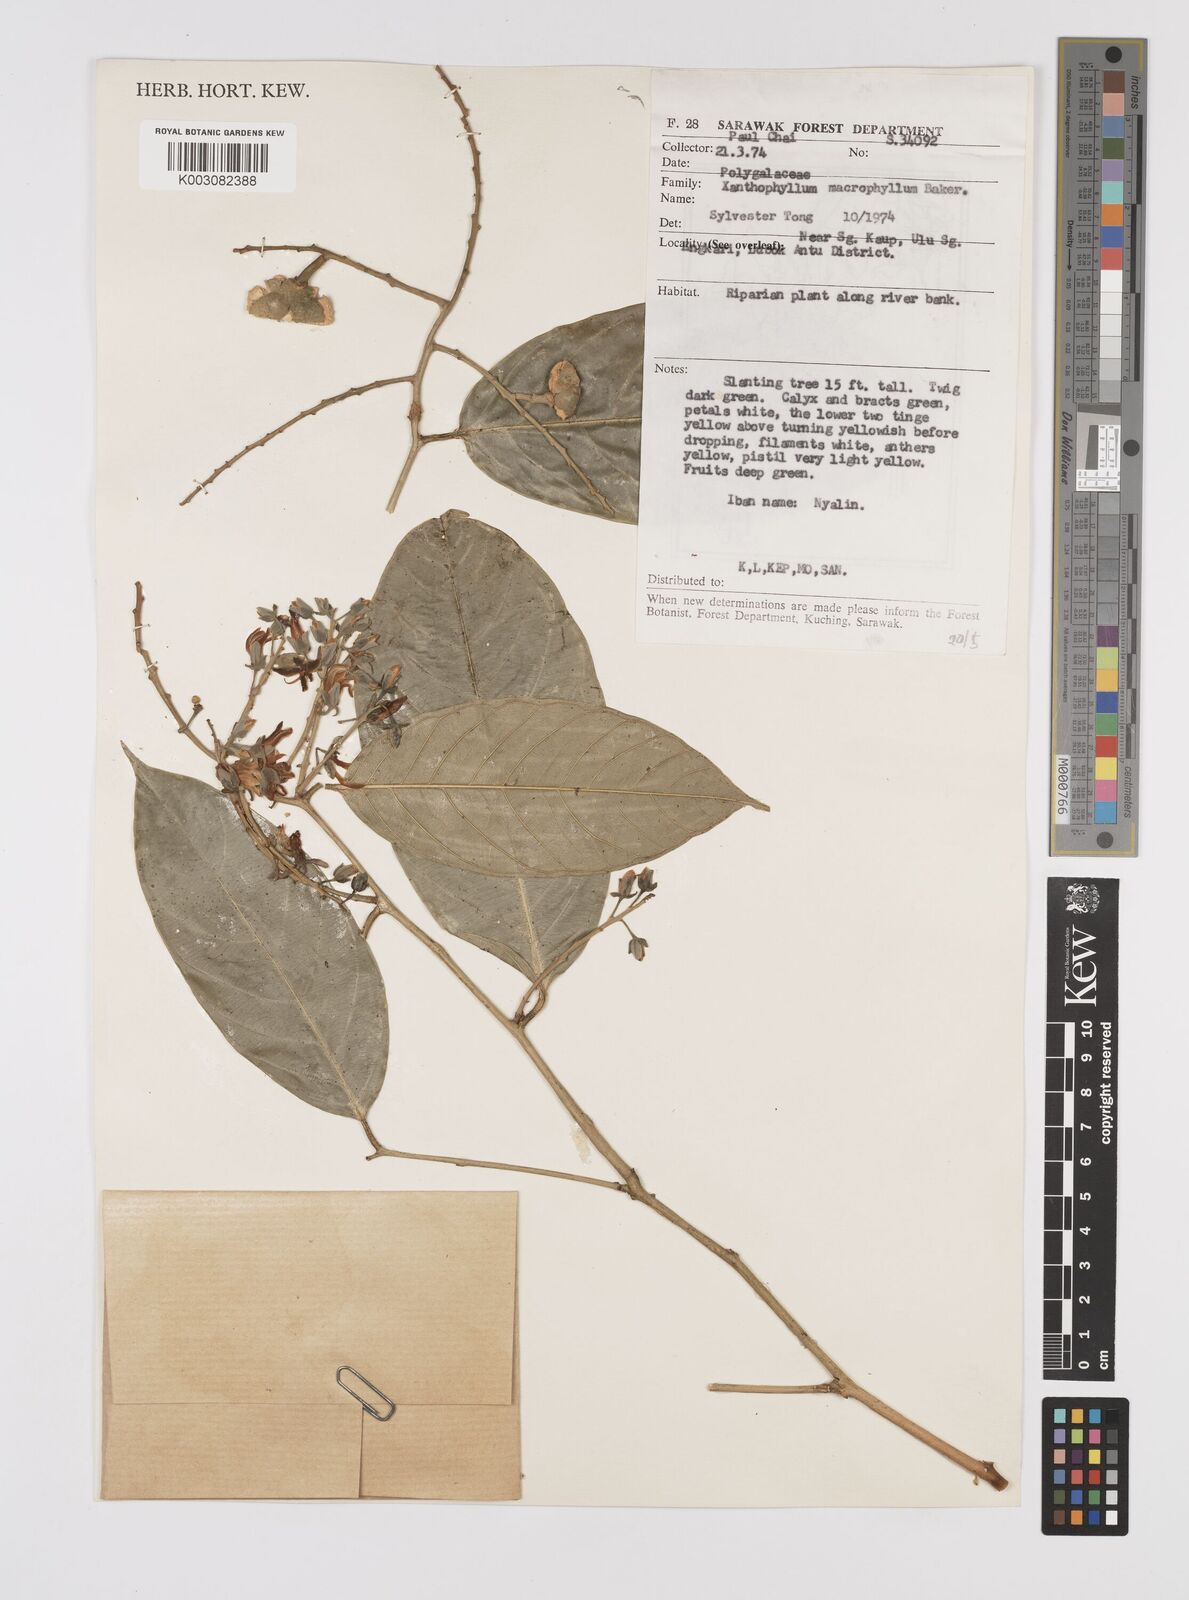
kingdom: Plantae
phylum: Tracheophyta
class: Magnoliopsida
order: Fabales
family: Polygalaceae
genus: Xanthophyllum
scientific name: Xanthophyllum macrophyllum
